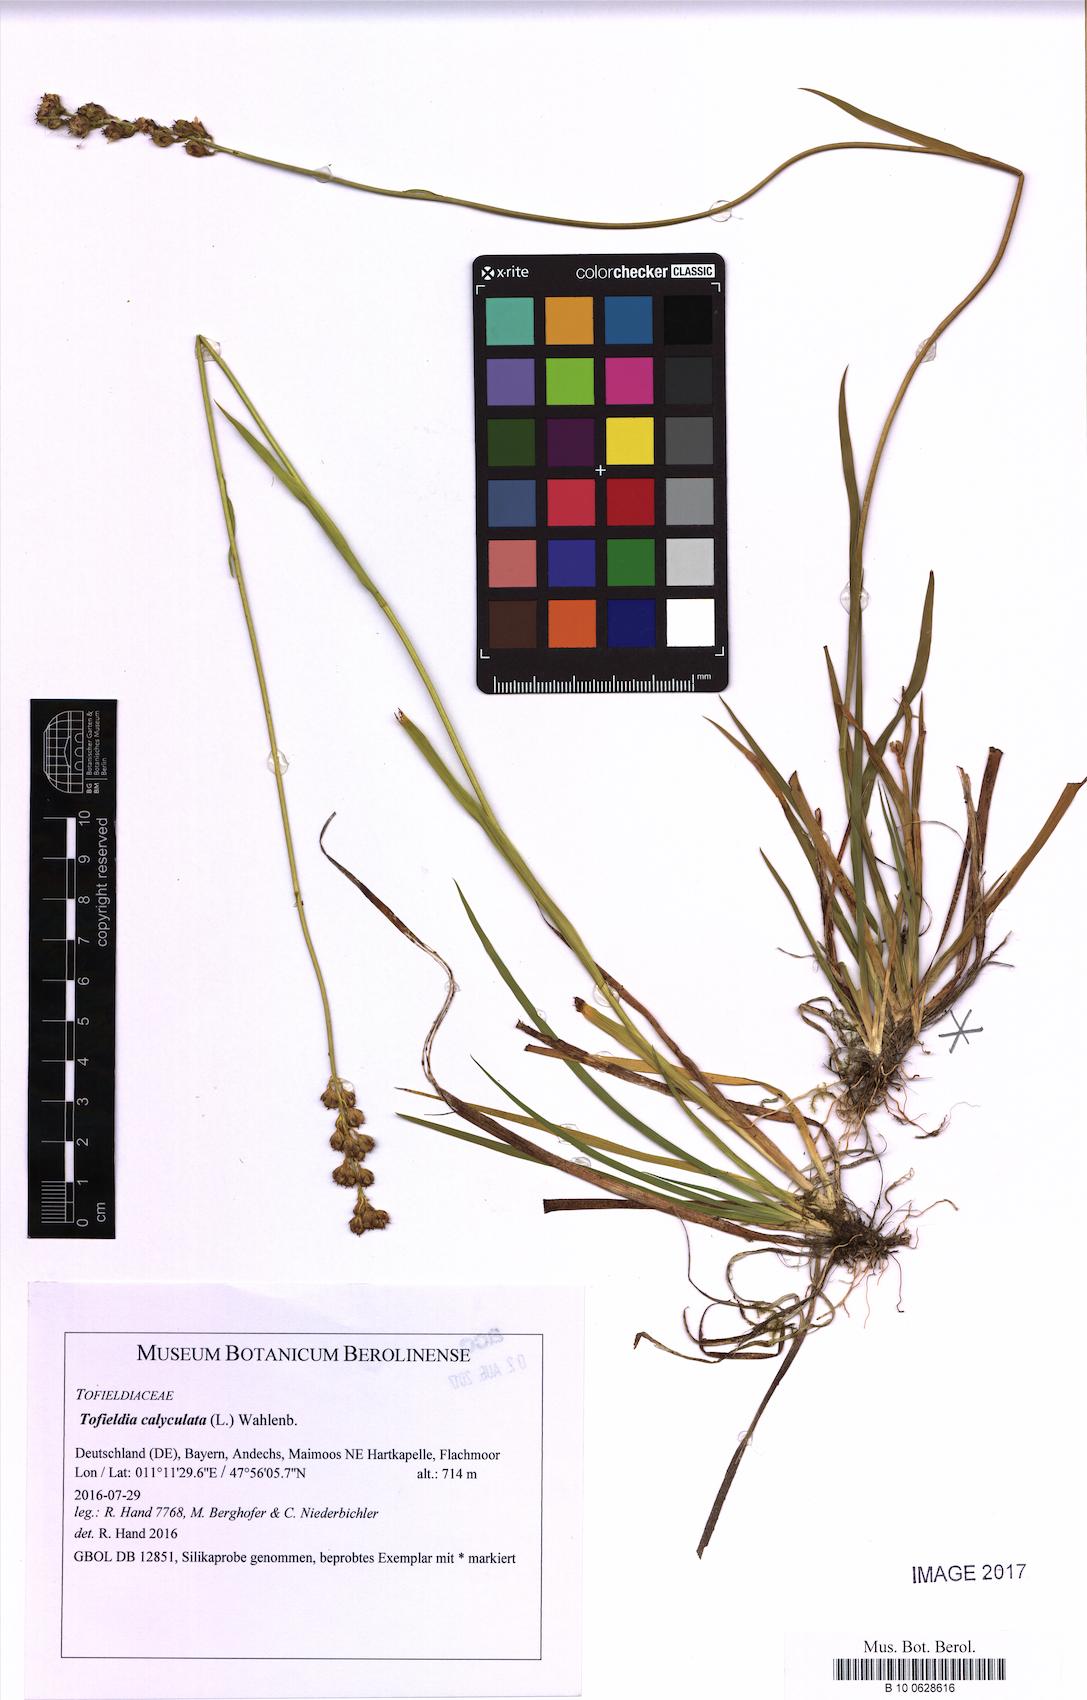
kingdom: Plantae
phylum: Tracheophyta
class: Liliopsida
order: Alismatales
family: Tofieldiaceae
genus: Tofieldia
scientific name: Tofieldia calyculata
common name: German-asphodel
